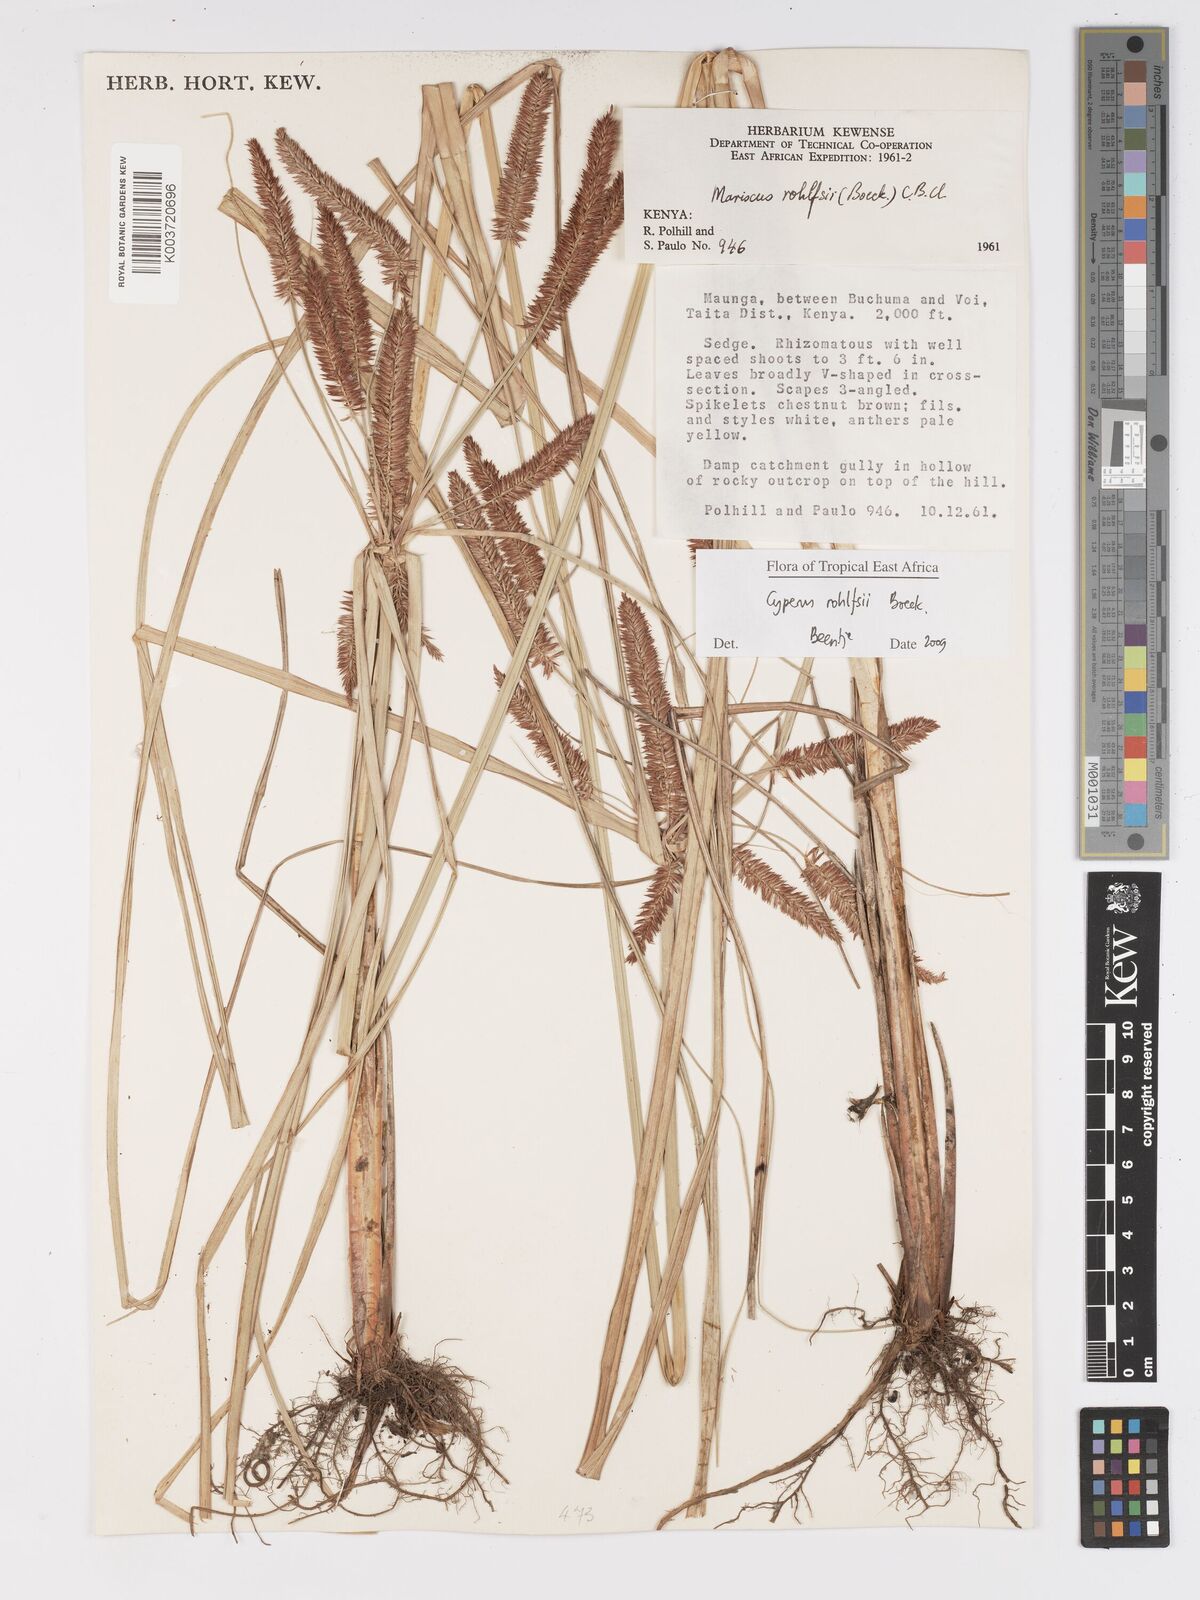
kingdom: Plantae
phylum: Tracheophyta
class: Liliopsida
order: Poales
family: Cyperaceae
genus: Cyperus
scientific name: Cyperus rohlfsii
